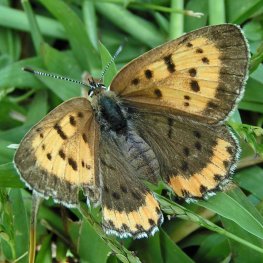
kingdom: Animalia
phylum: Arthropoda
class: Insecta
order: Lepidoptera
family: Sesiidae
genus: Sesia
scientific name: Sesia Lycaena hyllus
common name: Bronze Copper
